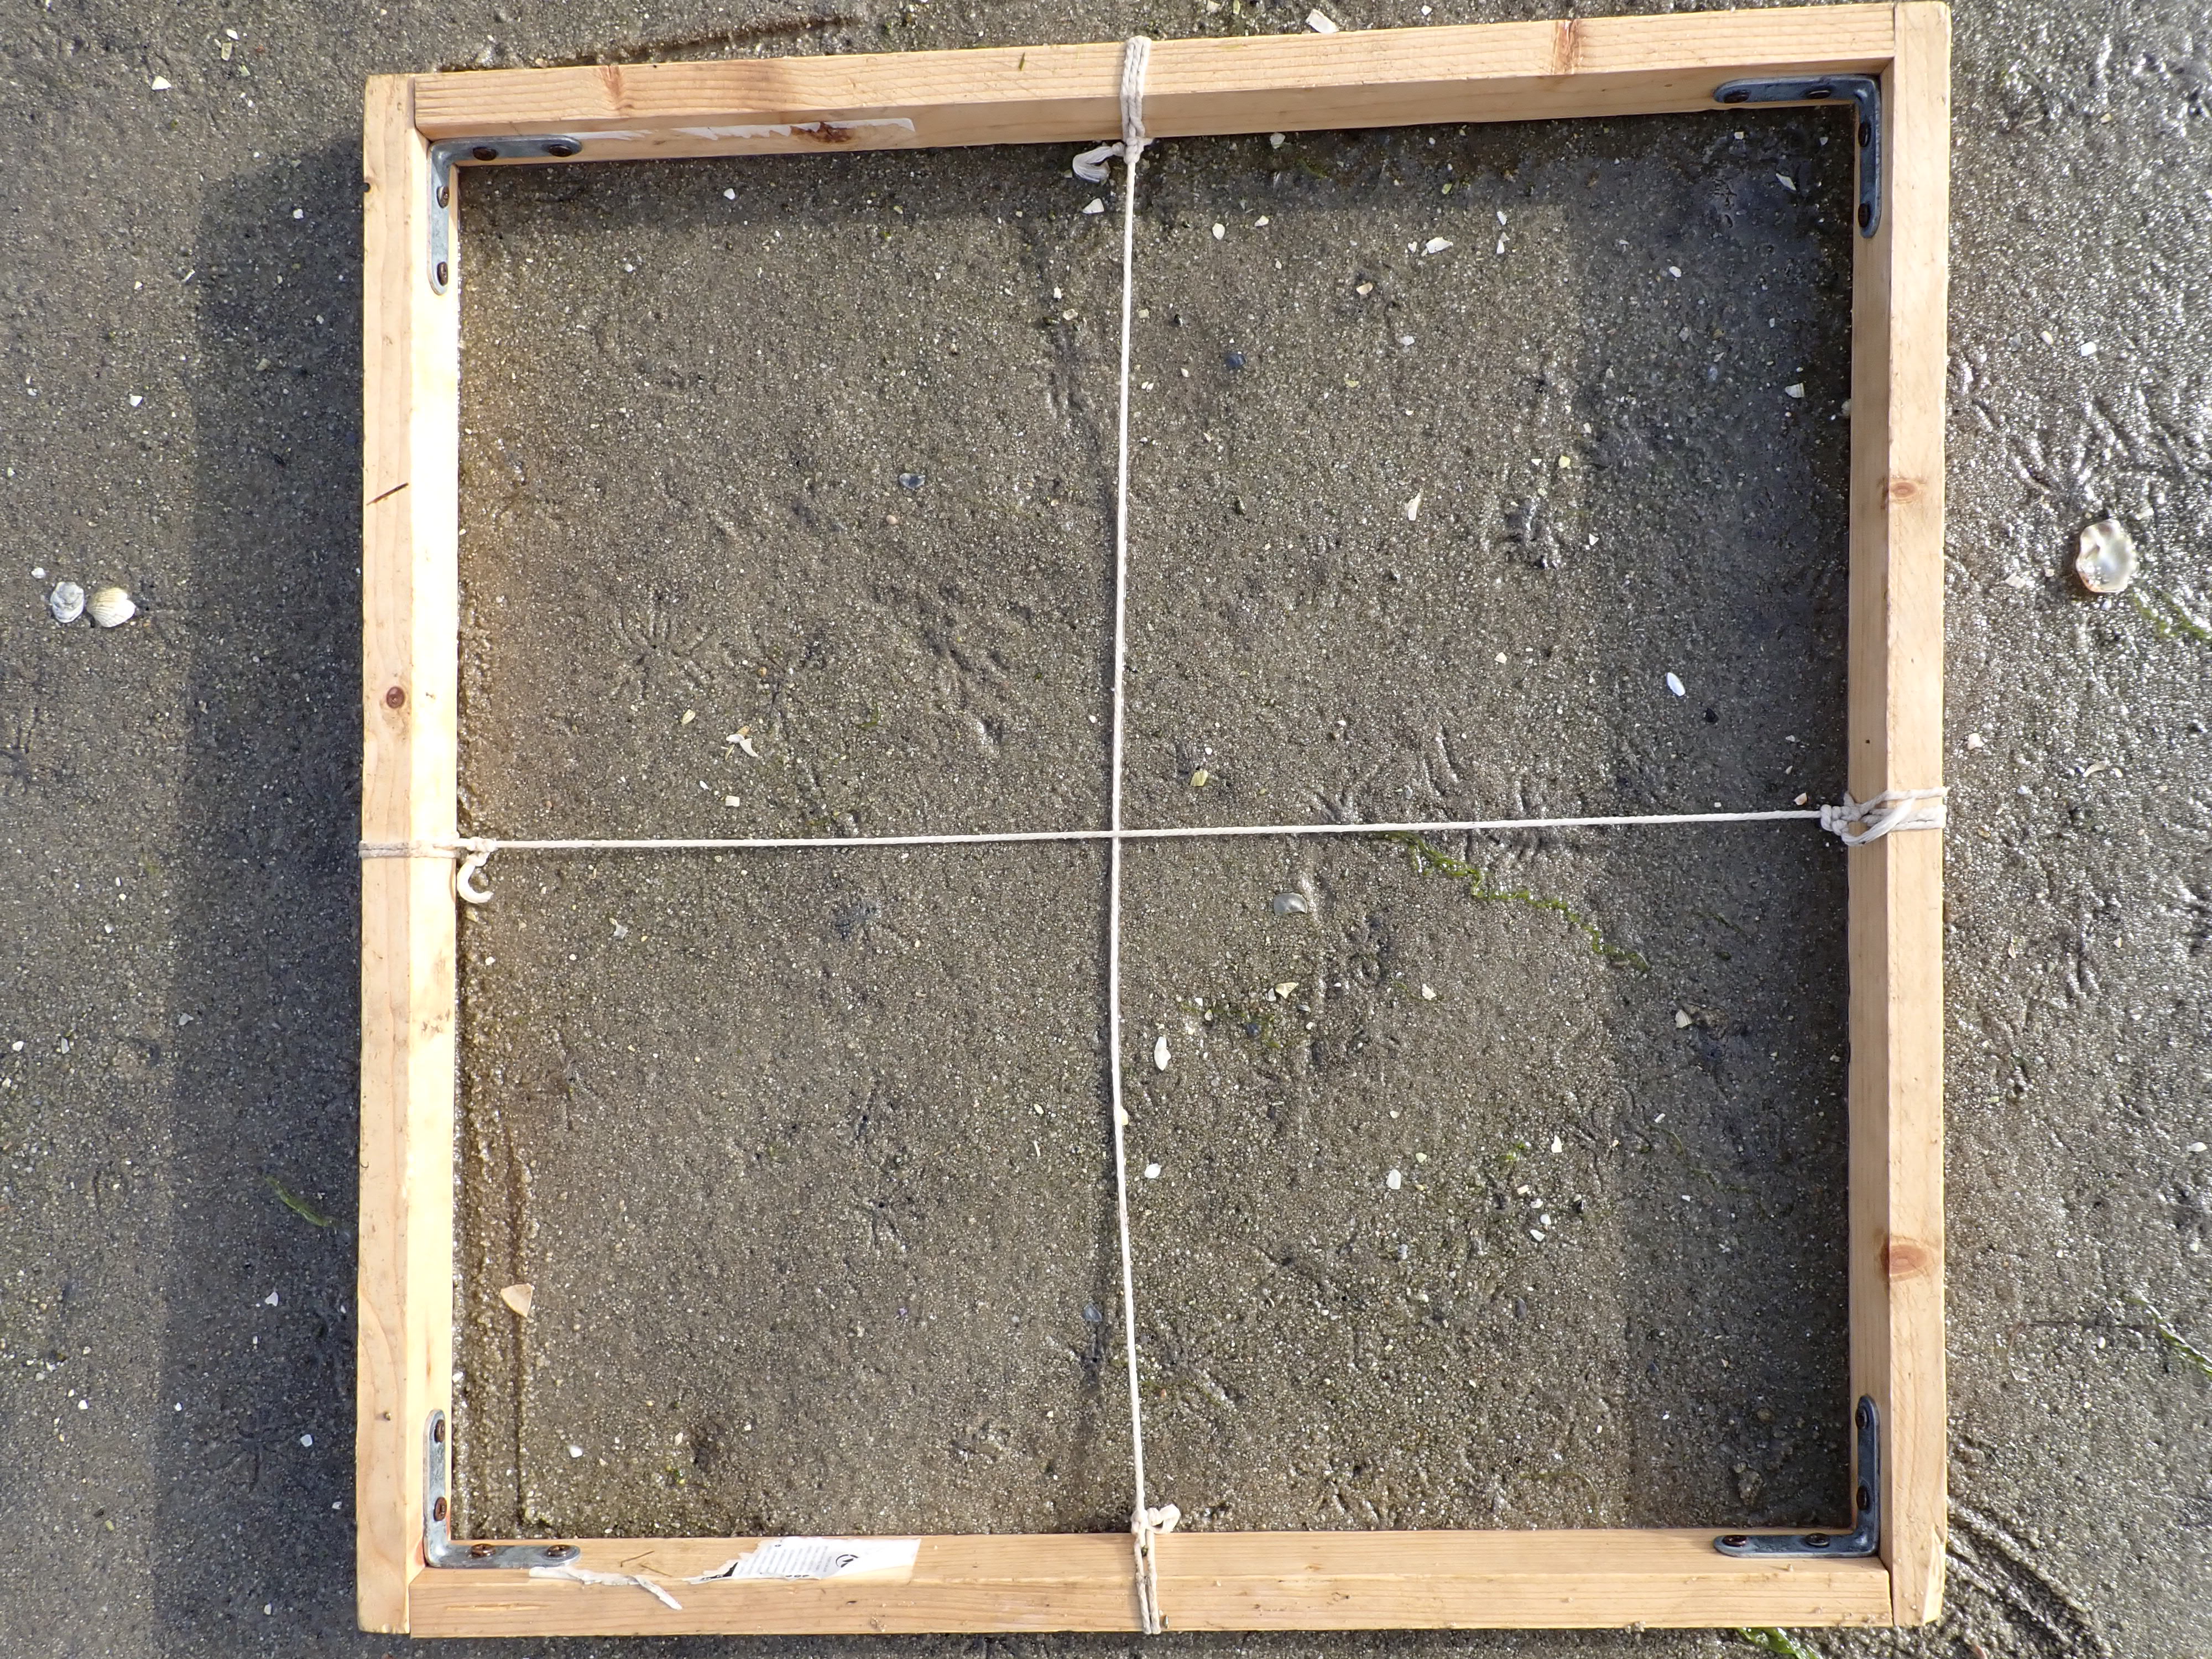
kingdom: Plantae
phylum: Chlorophyta
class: Ulvophyceae
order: Ulvales
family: Ulvaceae
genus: Ulva
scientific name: Ulva
